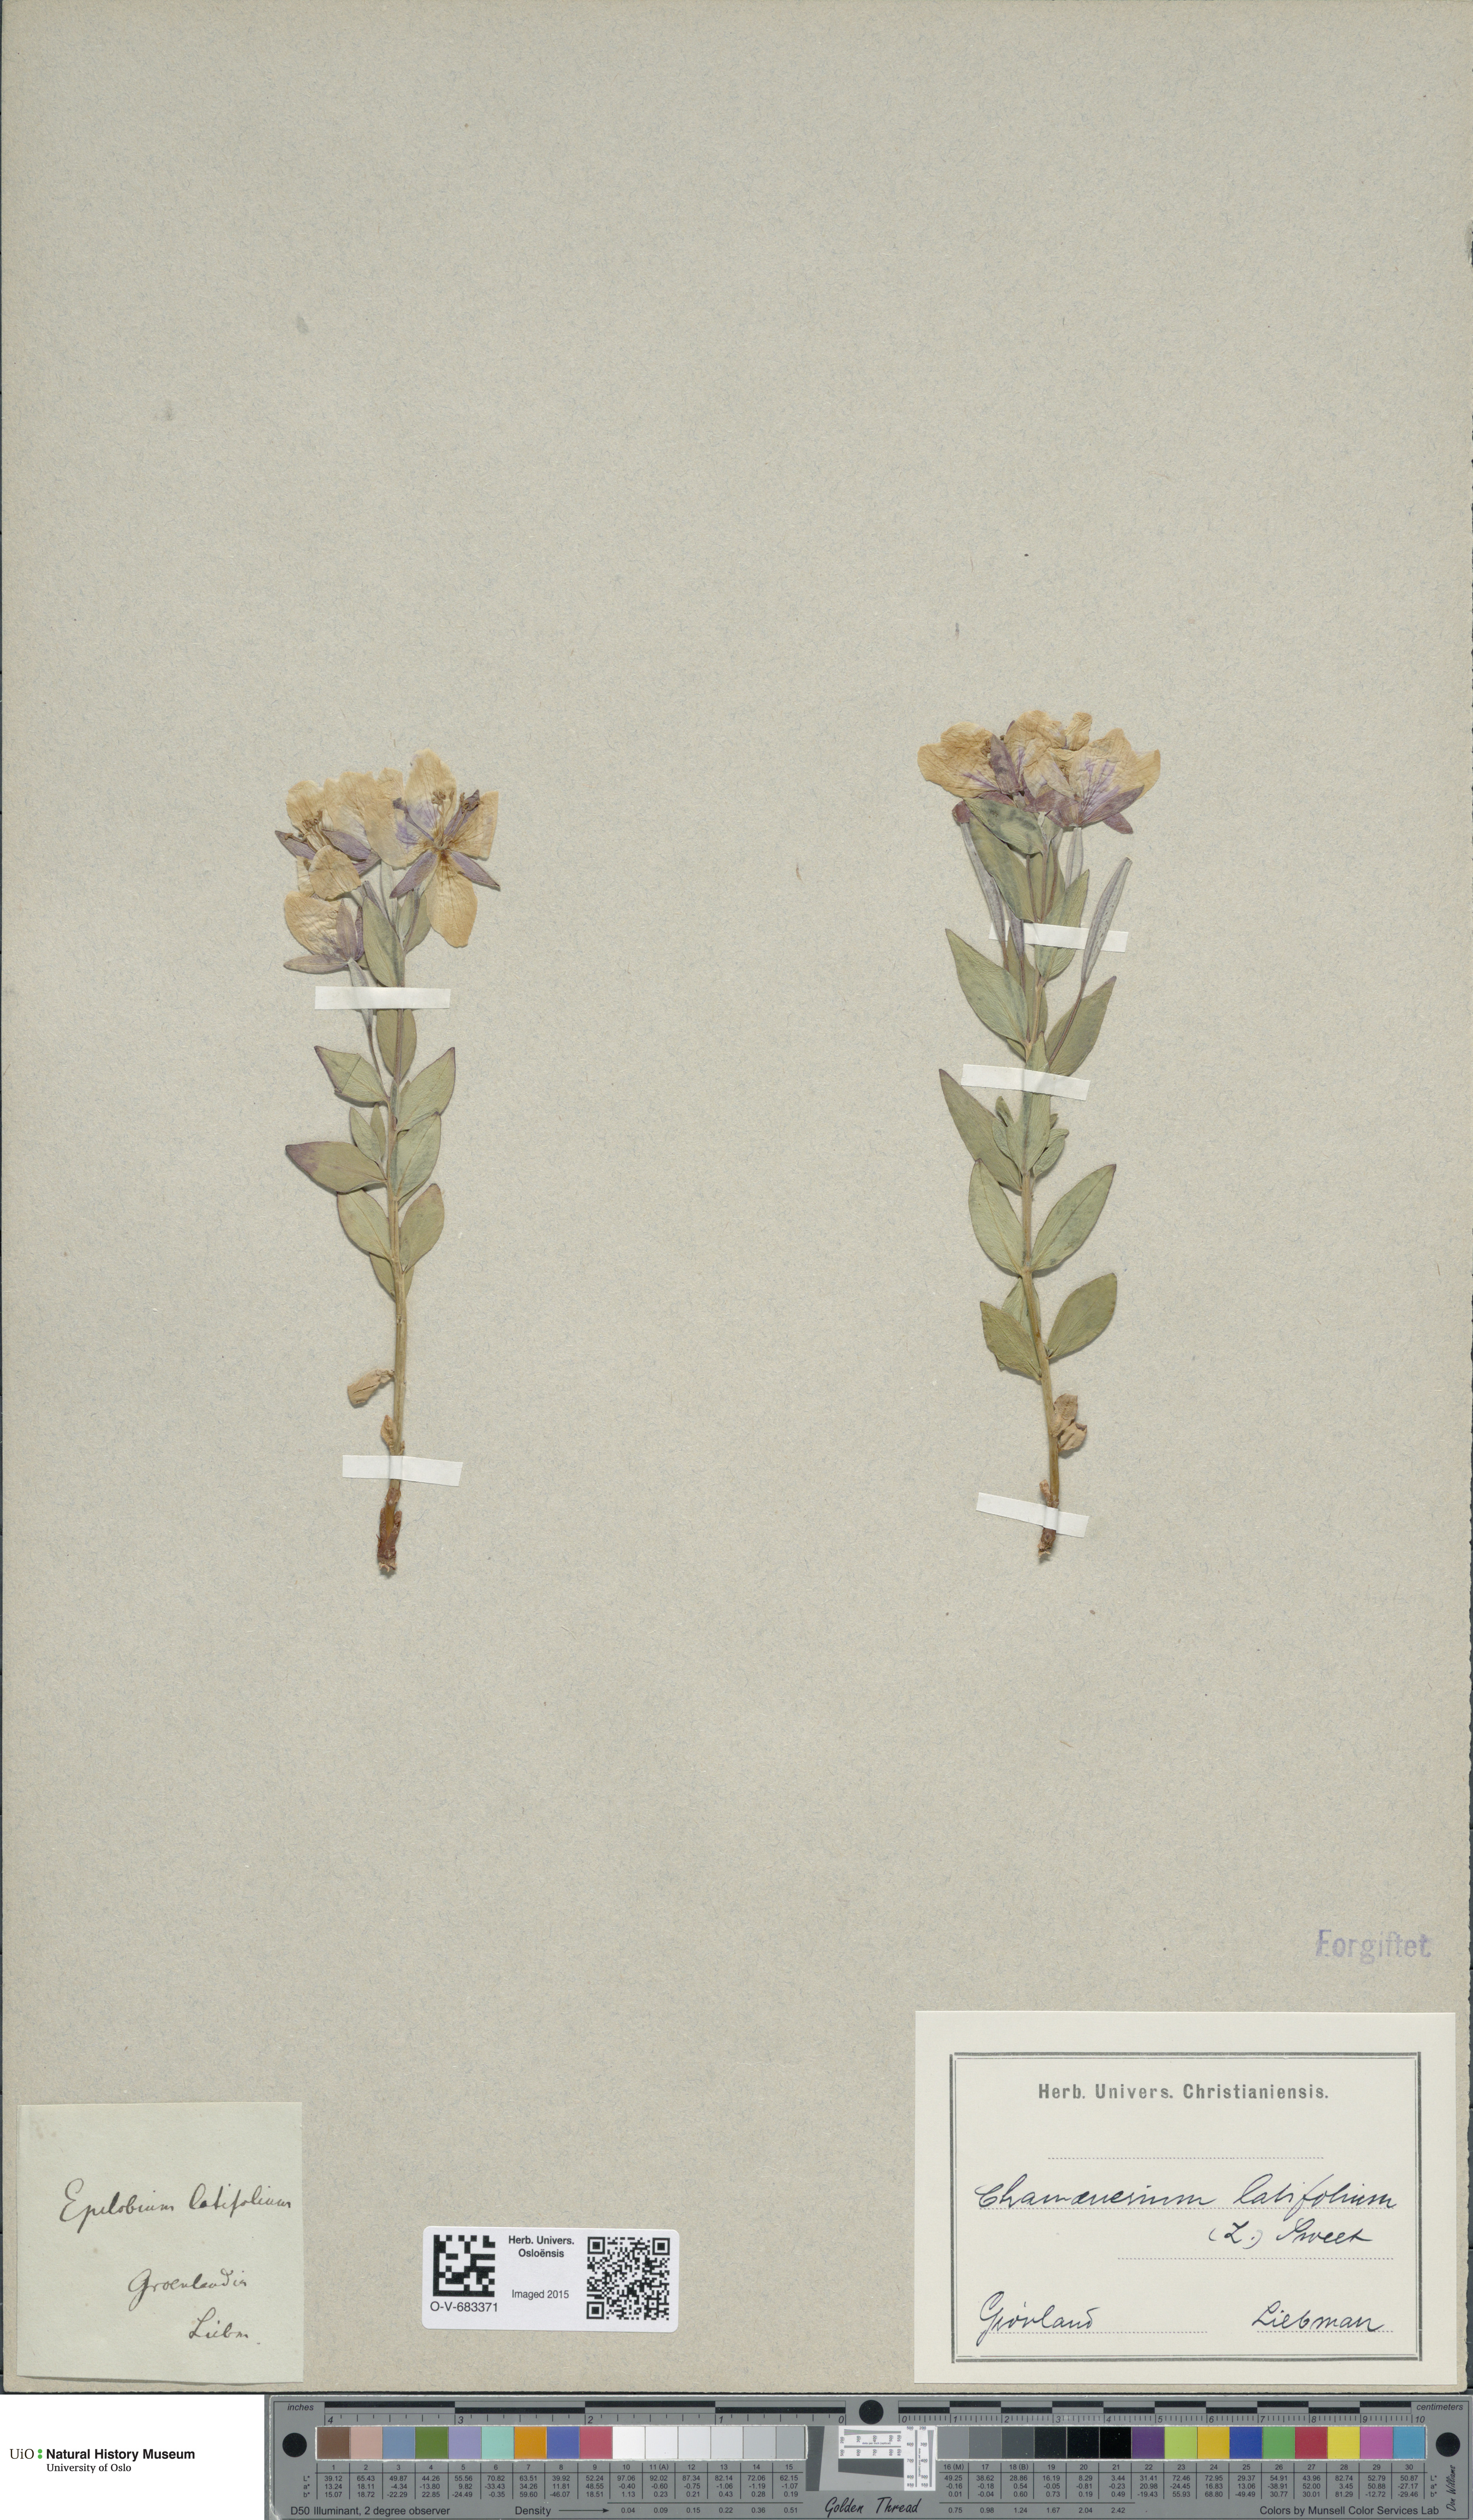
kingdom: Plantae
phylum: Tracheophyta
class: Magnoliopsida
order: Myrtales
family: Onagraceae
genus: Chamaenerion
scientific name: Chamaenerion latifolium
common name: Dwarf fireweed
